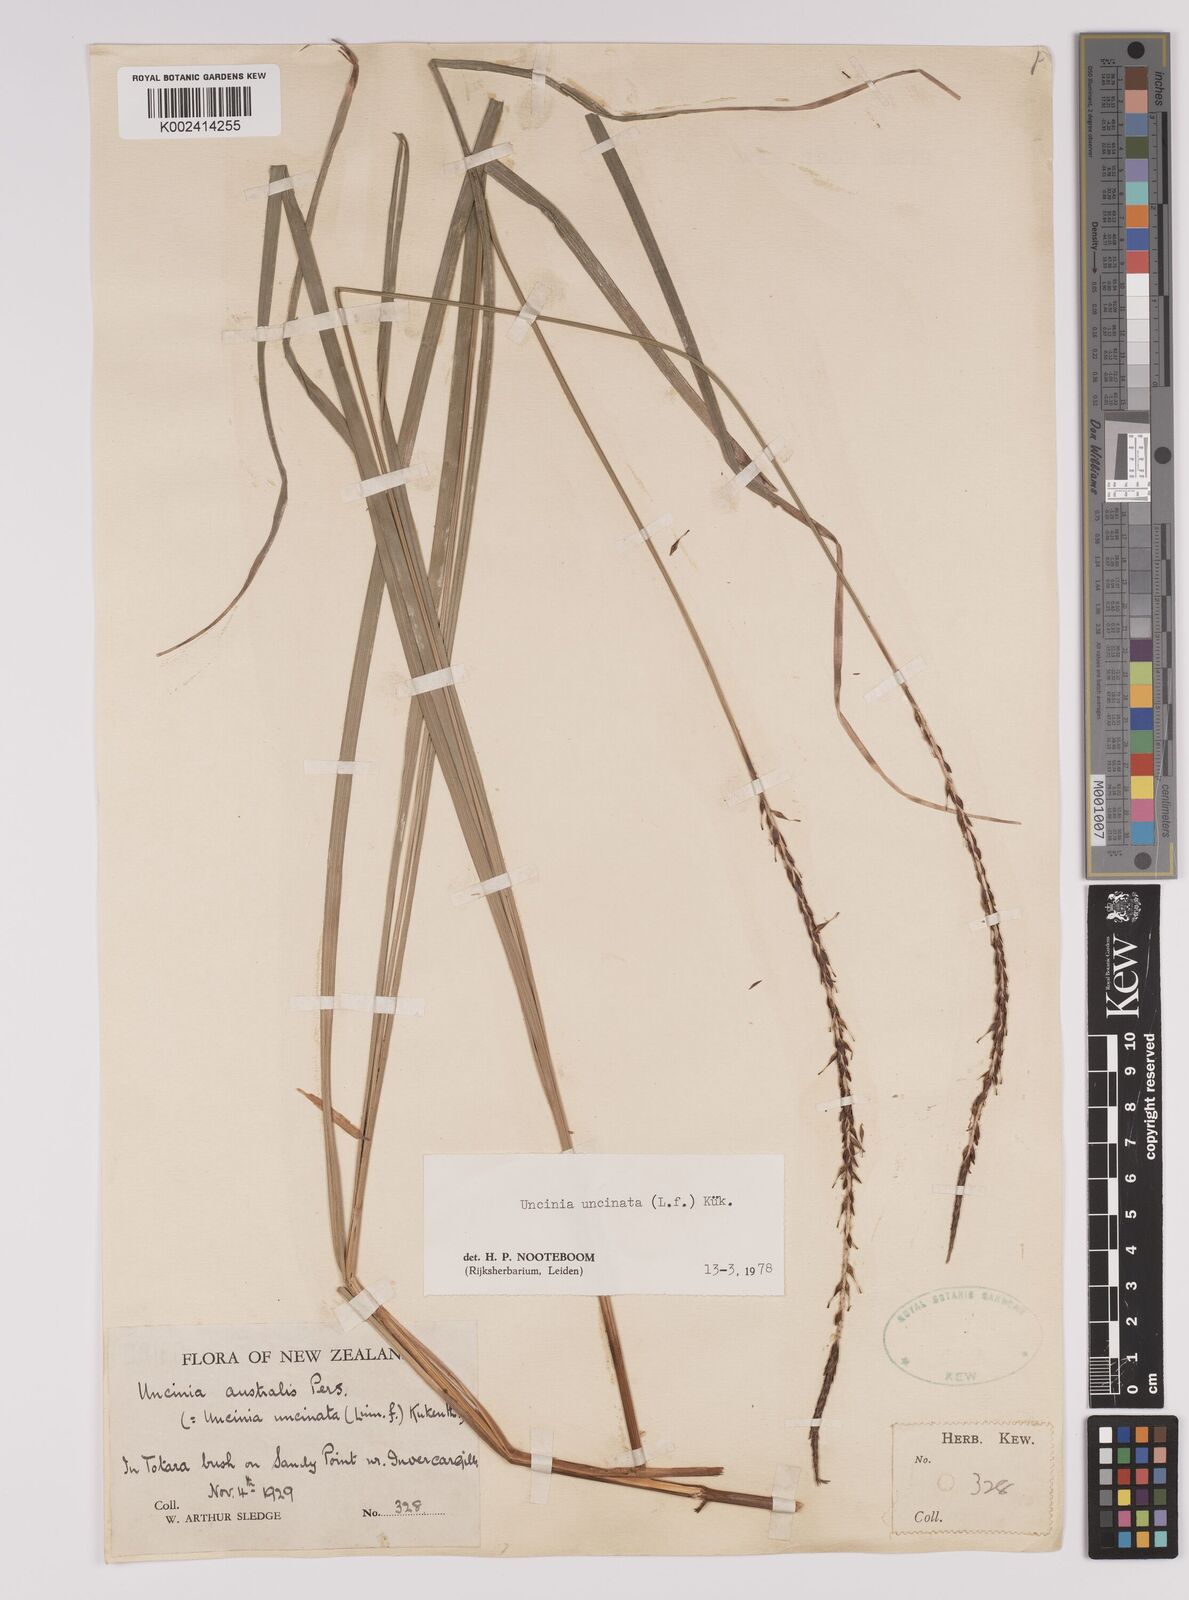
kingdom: Plantae
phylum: Tracheophyta
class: Liliopsida
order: Poales
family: Cyperaceae
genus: Carex
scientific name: Carex uncinata
